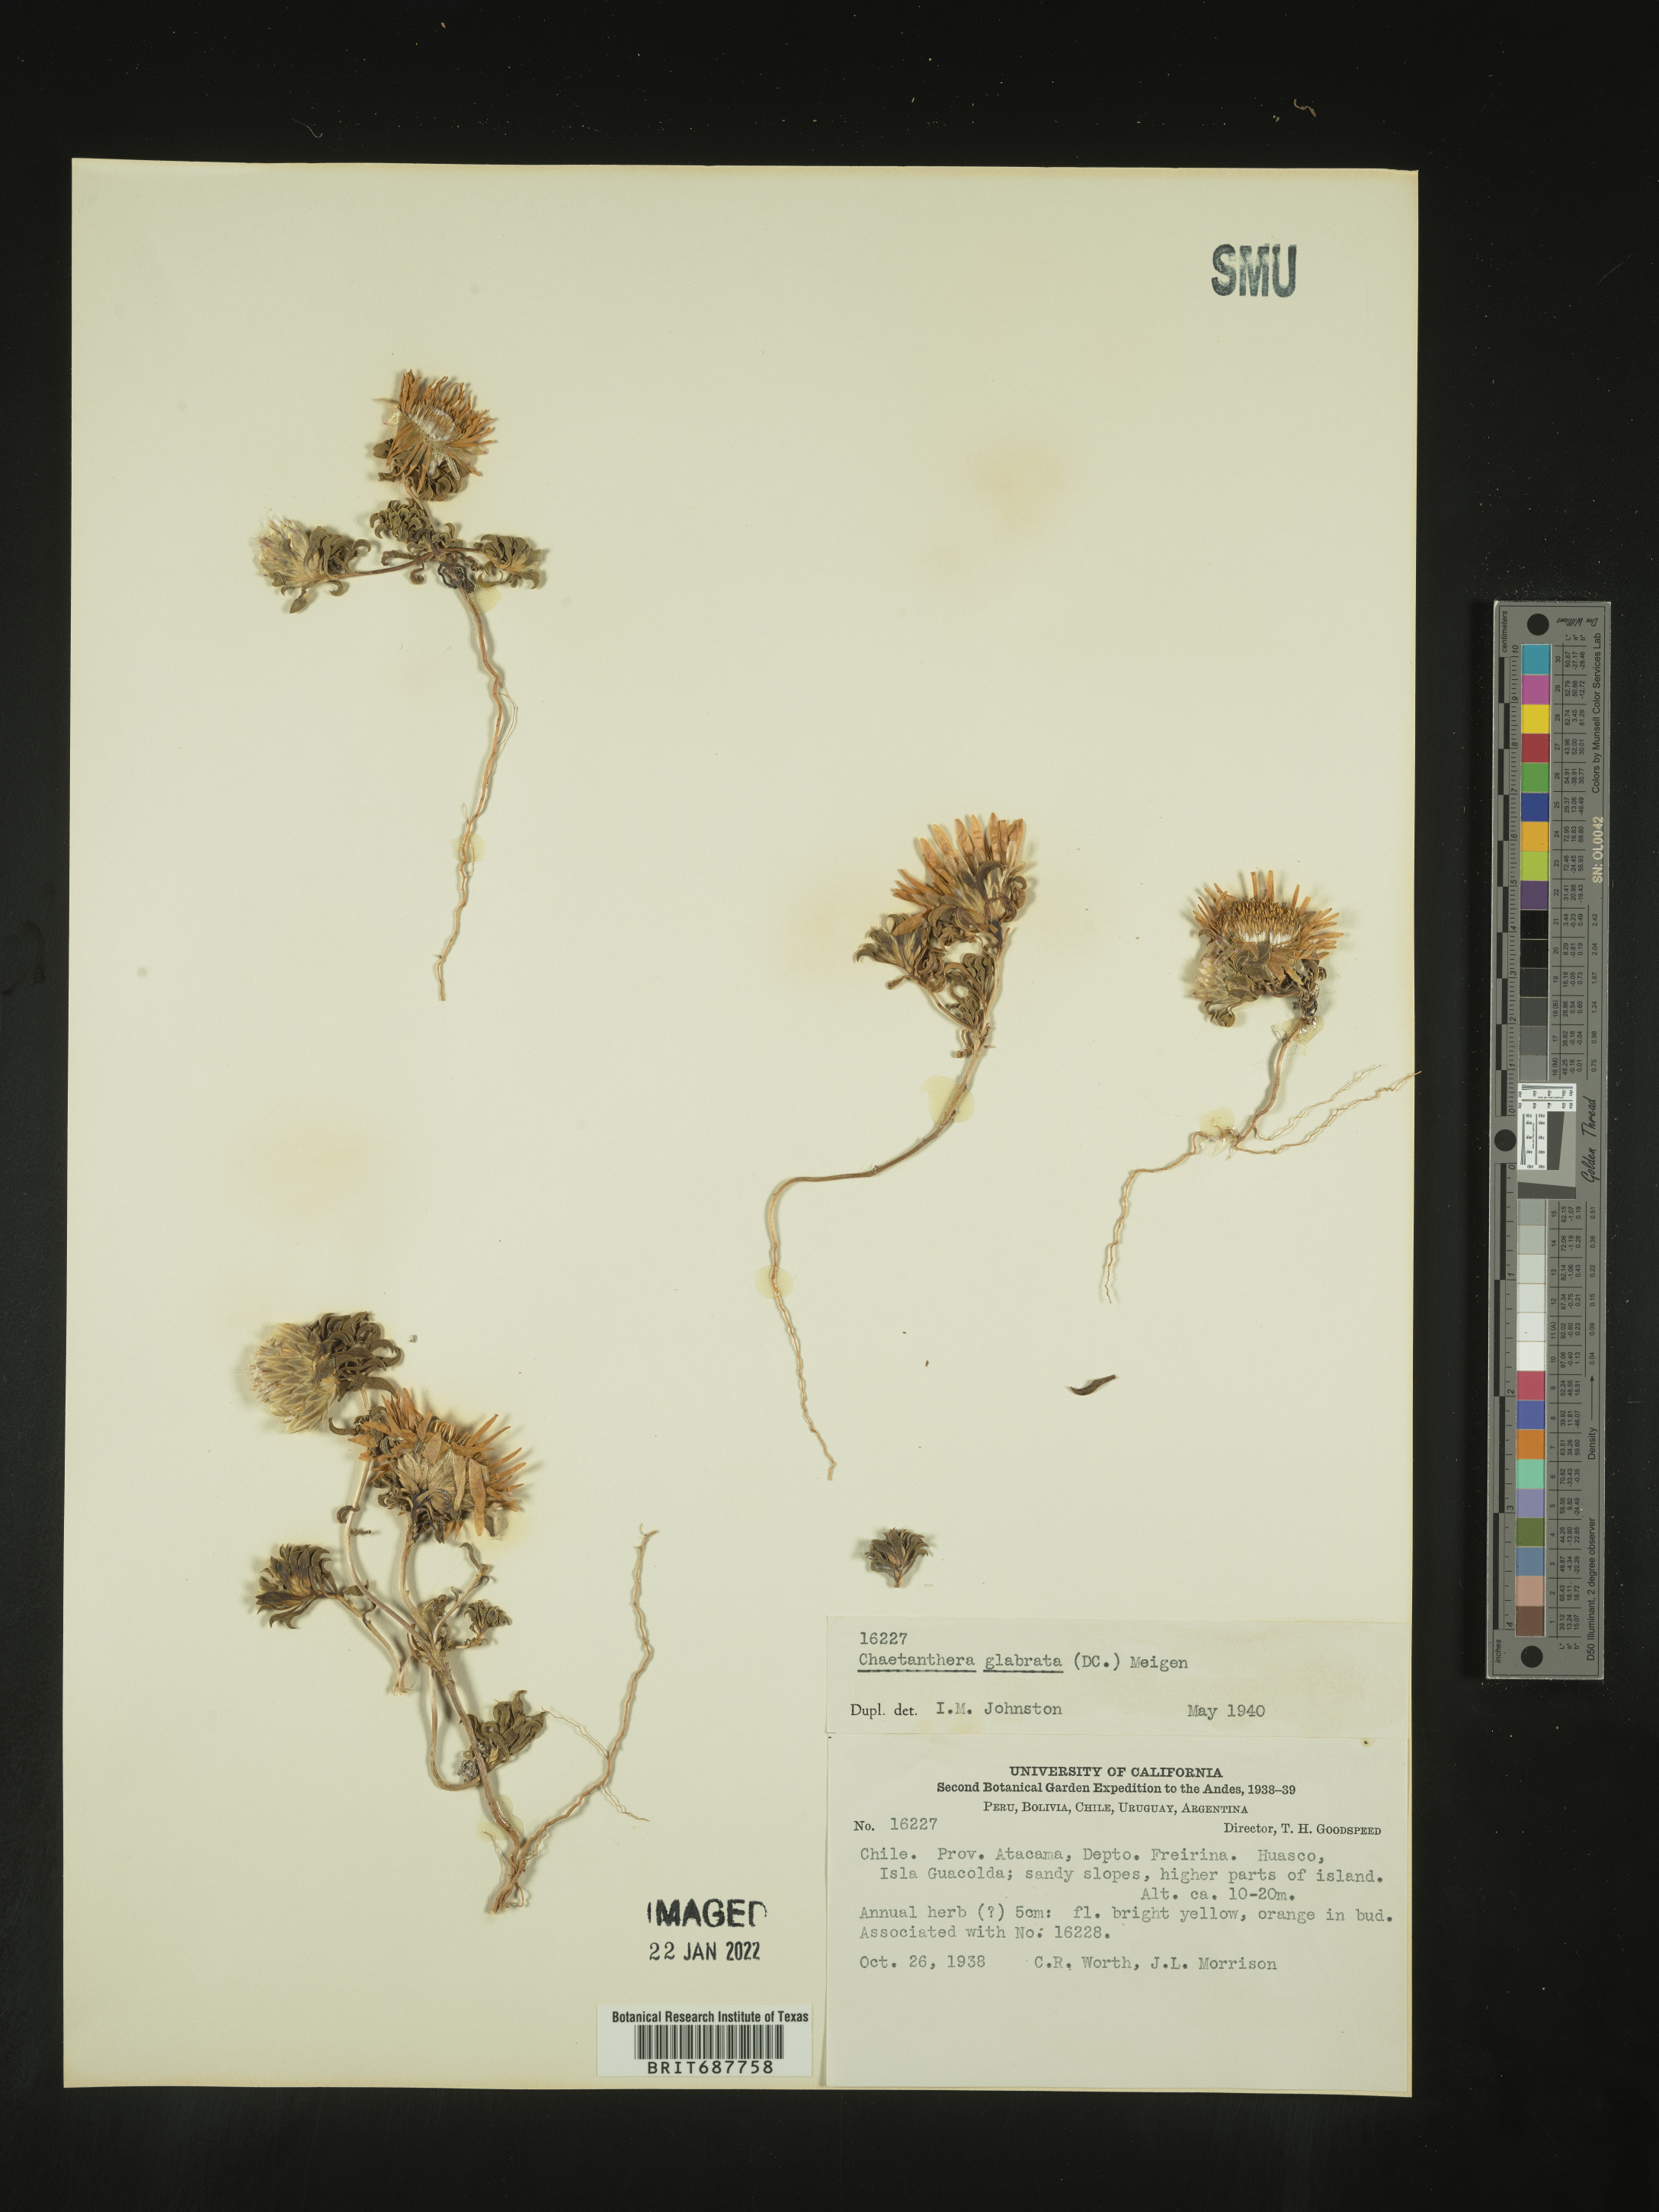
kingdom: Plantae
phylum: Tracheophyta
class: Magnoliopsida
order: Asterales
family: Asteraceae
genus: Chaetanthera
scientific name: Chaetanthera
